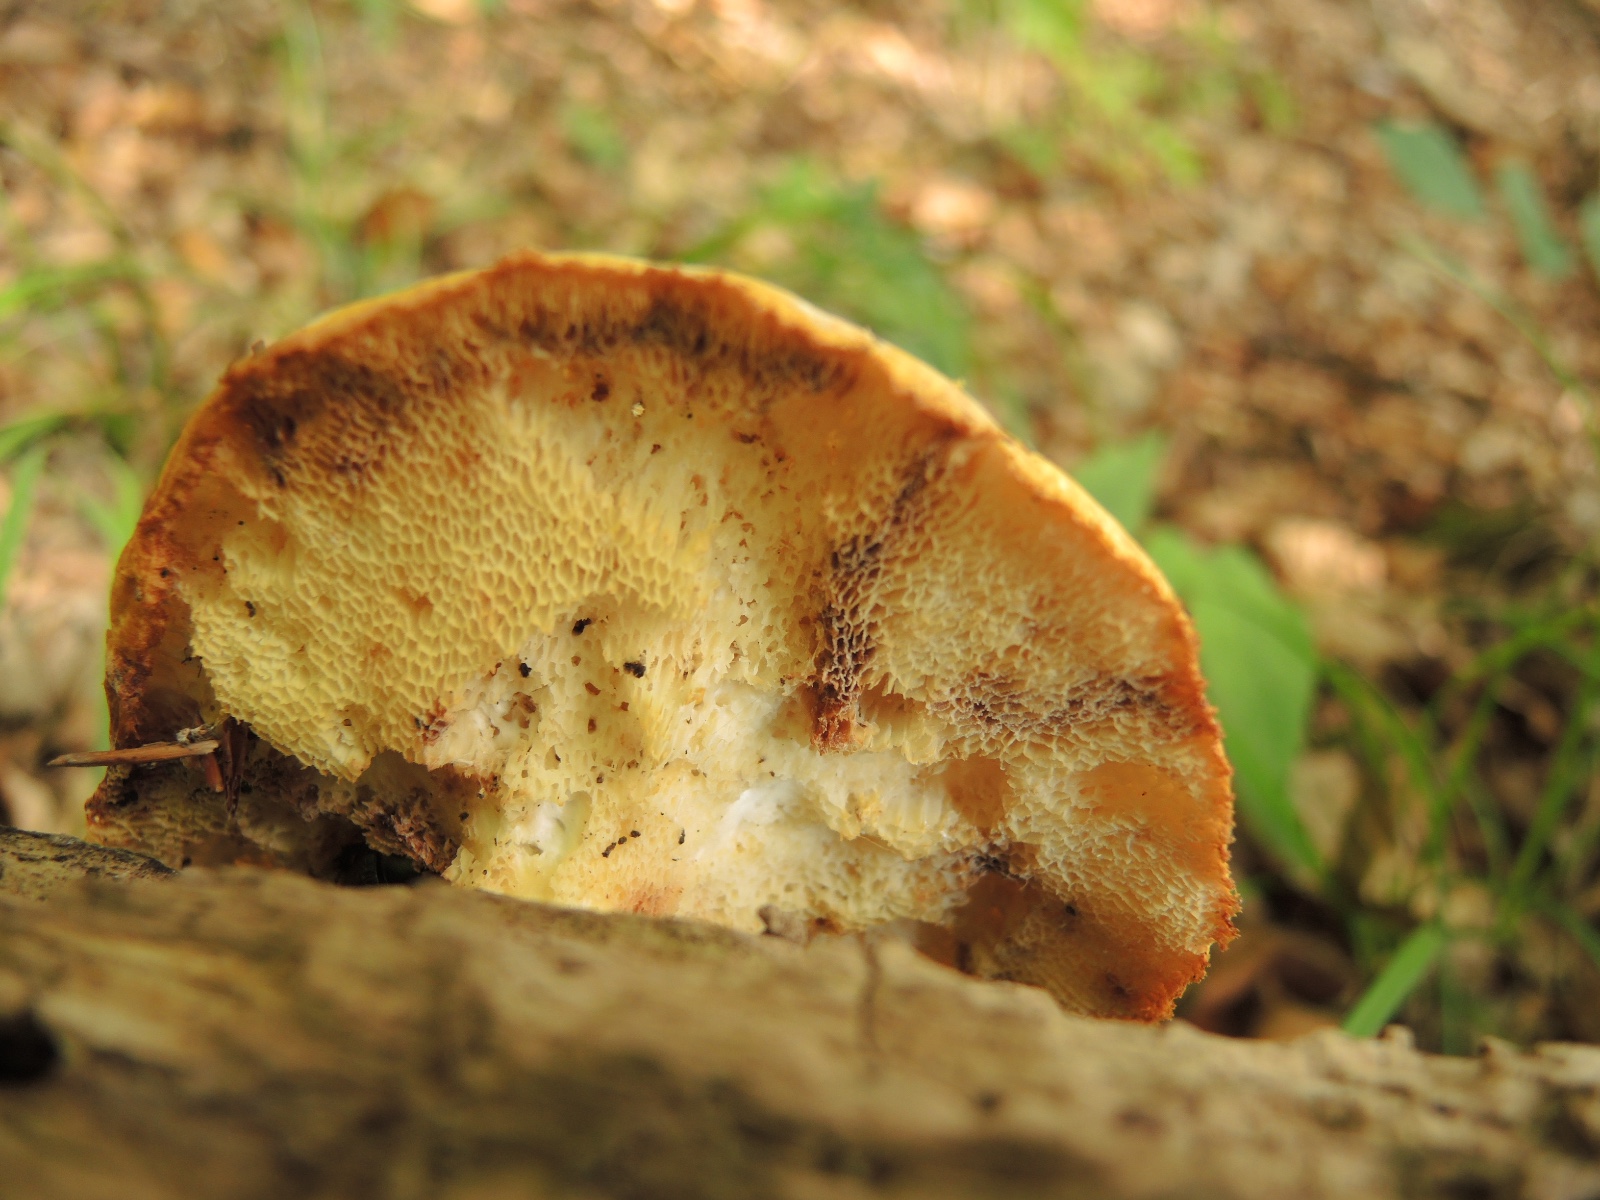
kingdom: Fungi
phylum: Basidiomycota
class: Agaricomycetes
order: Polyporales
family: Polyporaceae
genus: Polyporus
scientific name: Polyporus tuberaster
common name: knoldet stilkporesvamp
